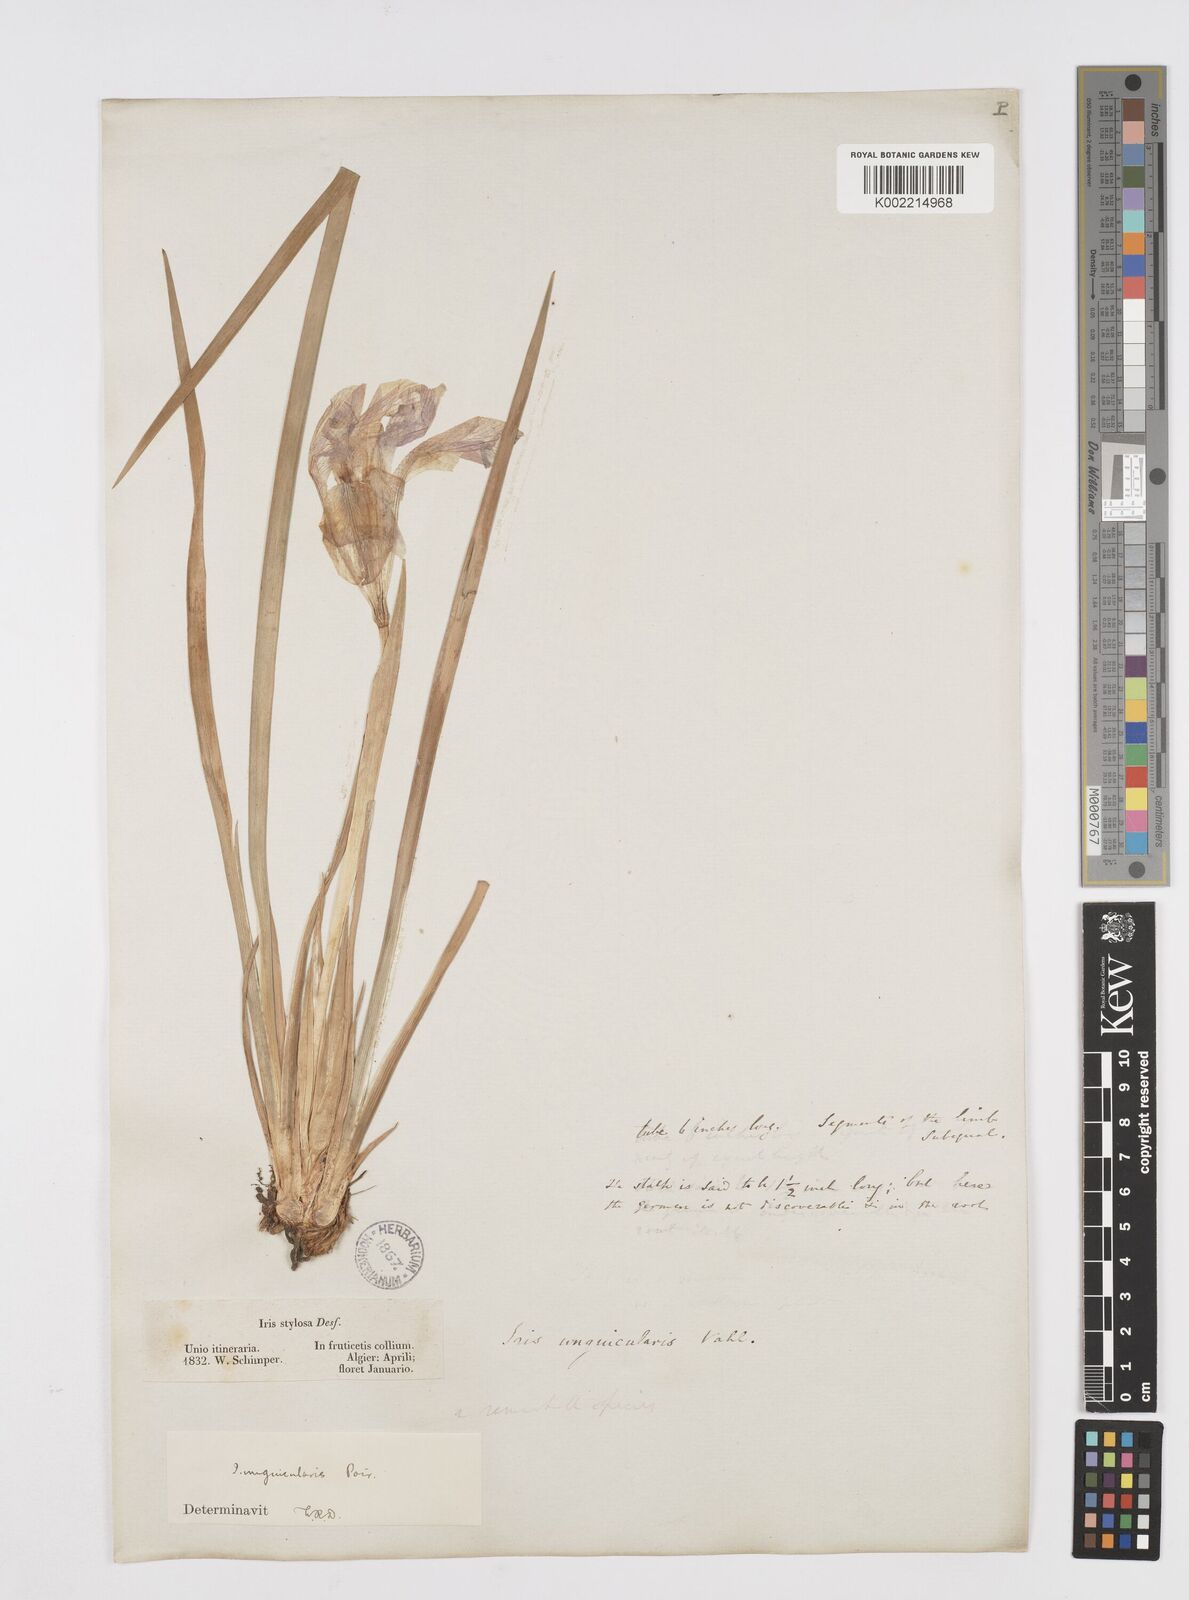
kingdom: Plantae
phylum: Tracheophyta
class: Liliopsida
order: Asparagales
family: Iridaceae
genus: Iris
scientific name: Iris unguicularis
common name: Algerian iris
